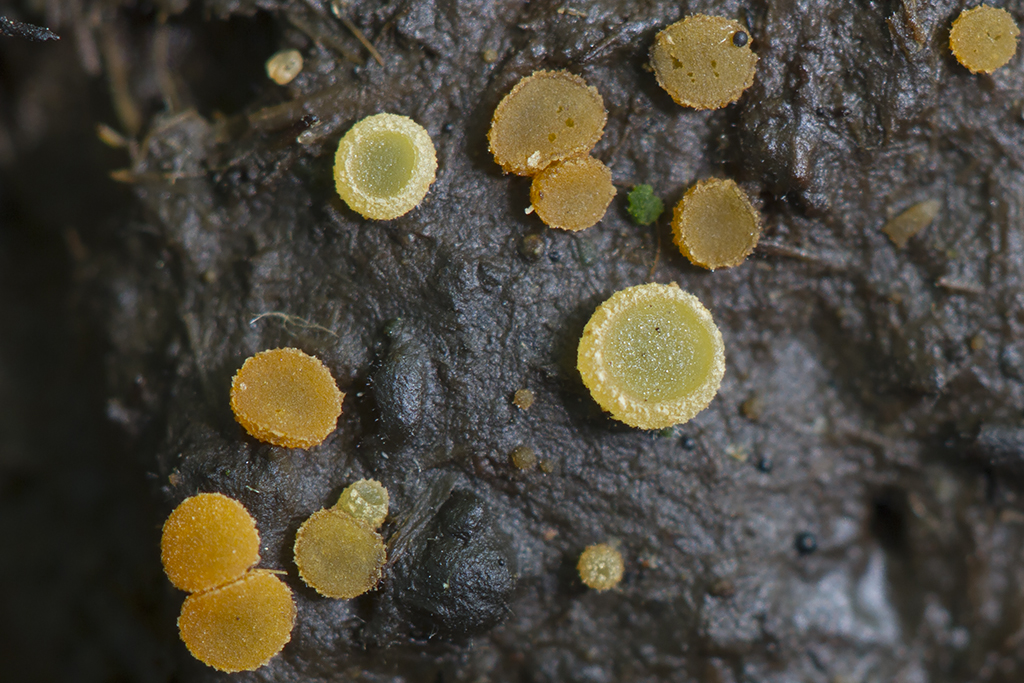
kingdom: Fungi
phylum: Ascomycota
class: Pezizomycetes
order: Pezizales
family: Pyronemataceae
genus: Cheilymenia
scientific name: Cheilymenia granulata
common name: møgbæger
